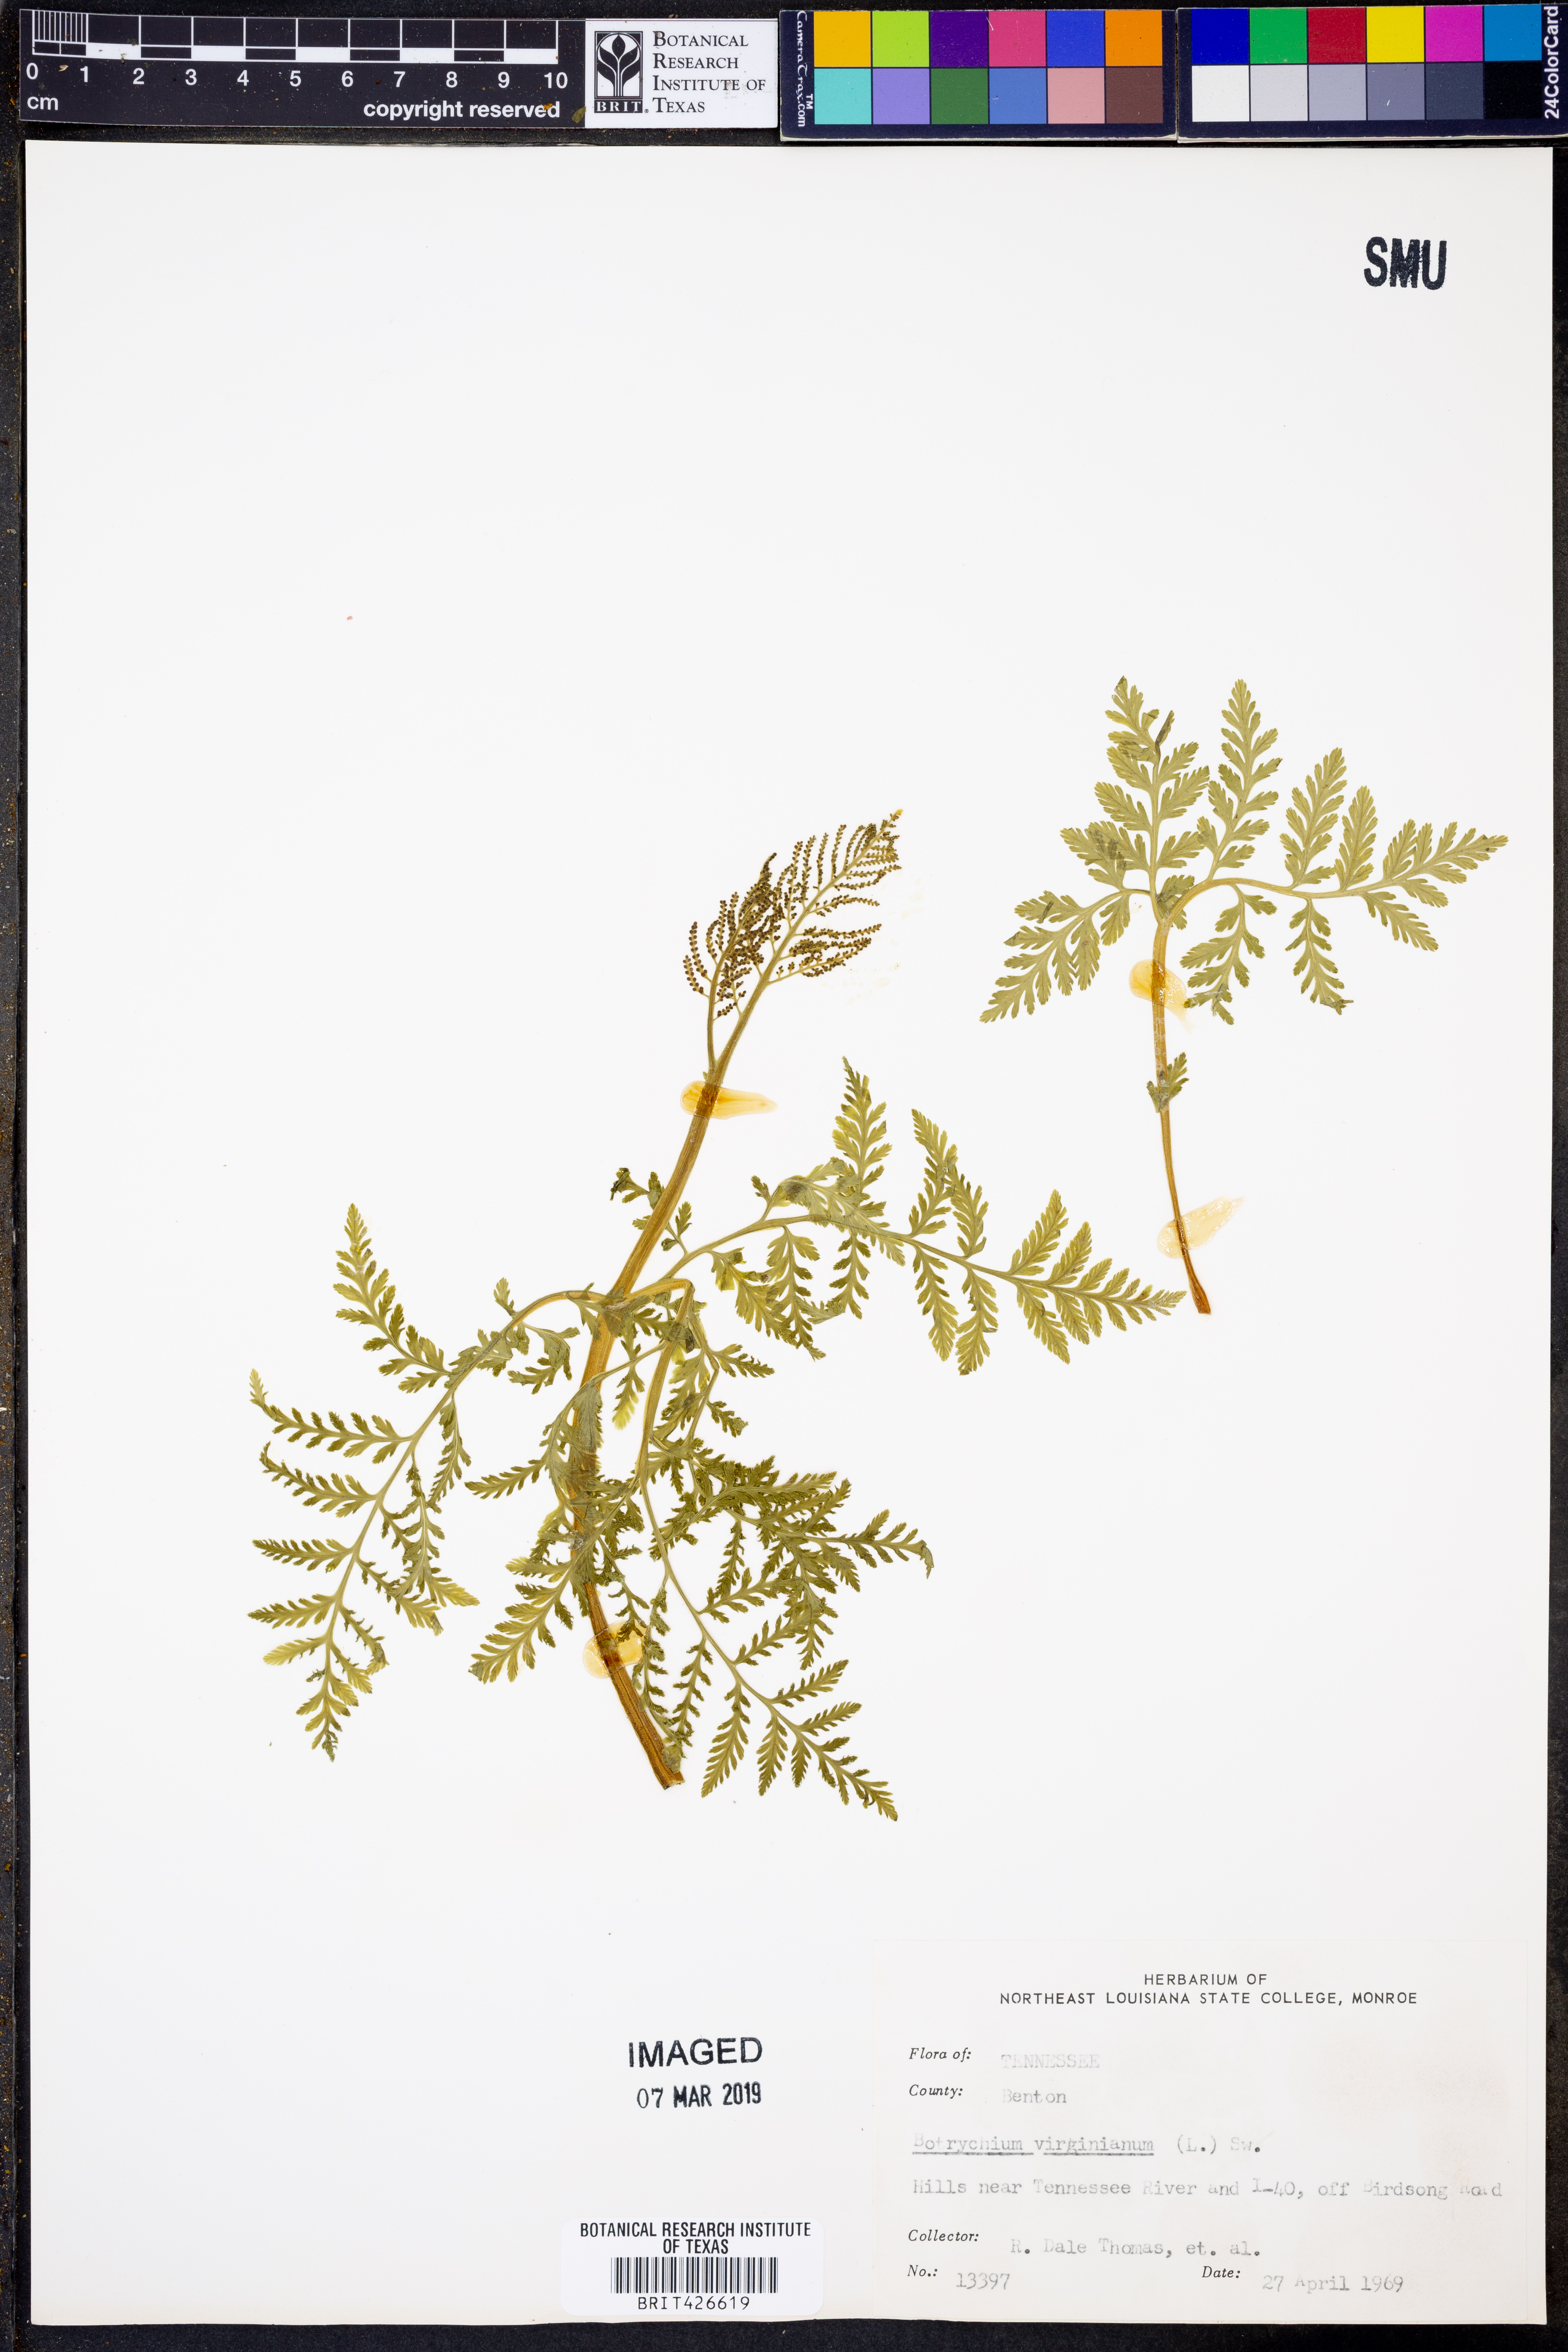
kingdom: Plantae
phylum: Tracheophyta
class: Polypodiopsida
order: Ophioglossales
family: Ophioglossaceae
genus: Botrypus
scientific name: Botrypus virginianus
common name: Common grapefern
